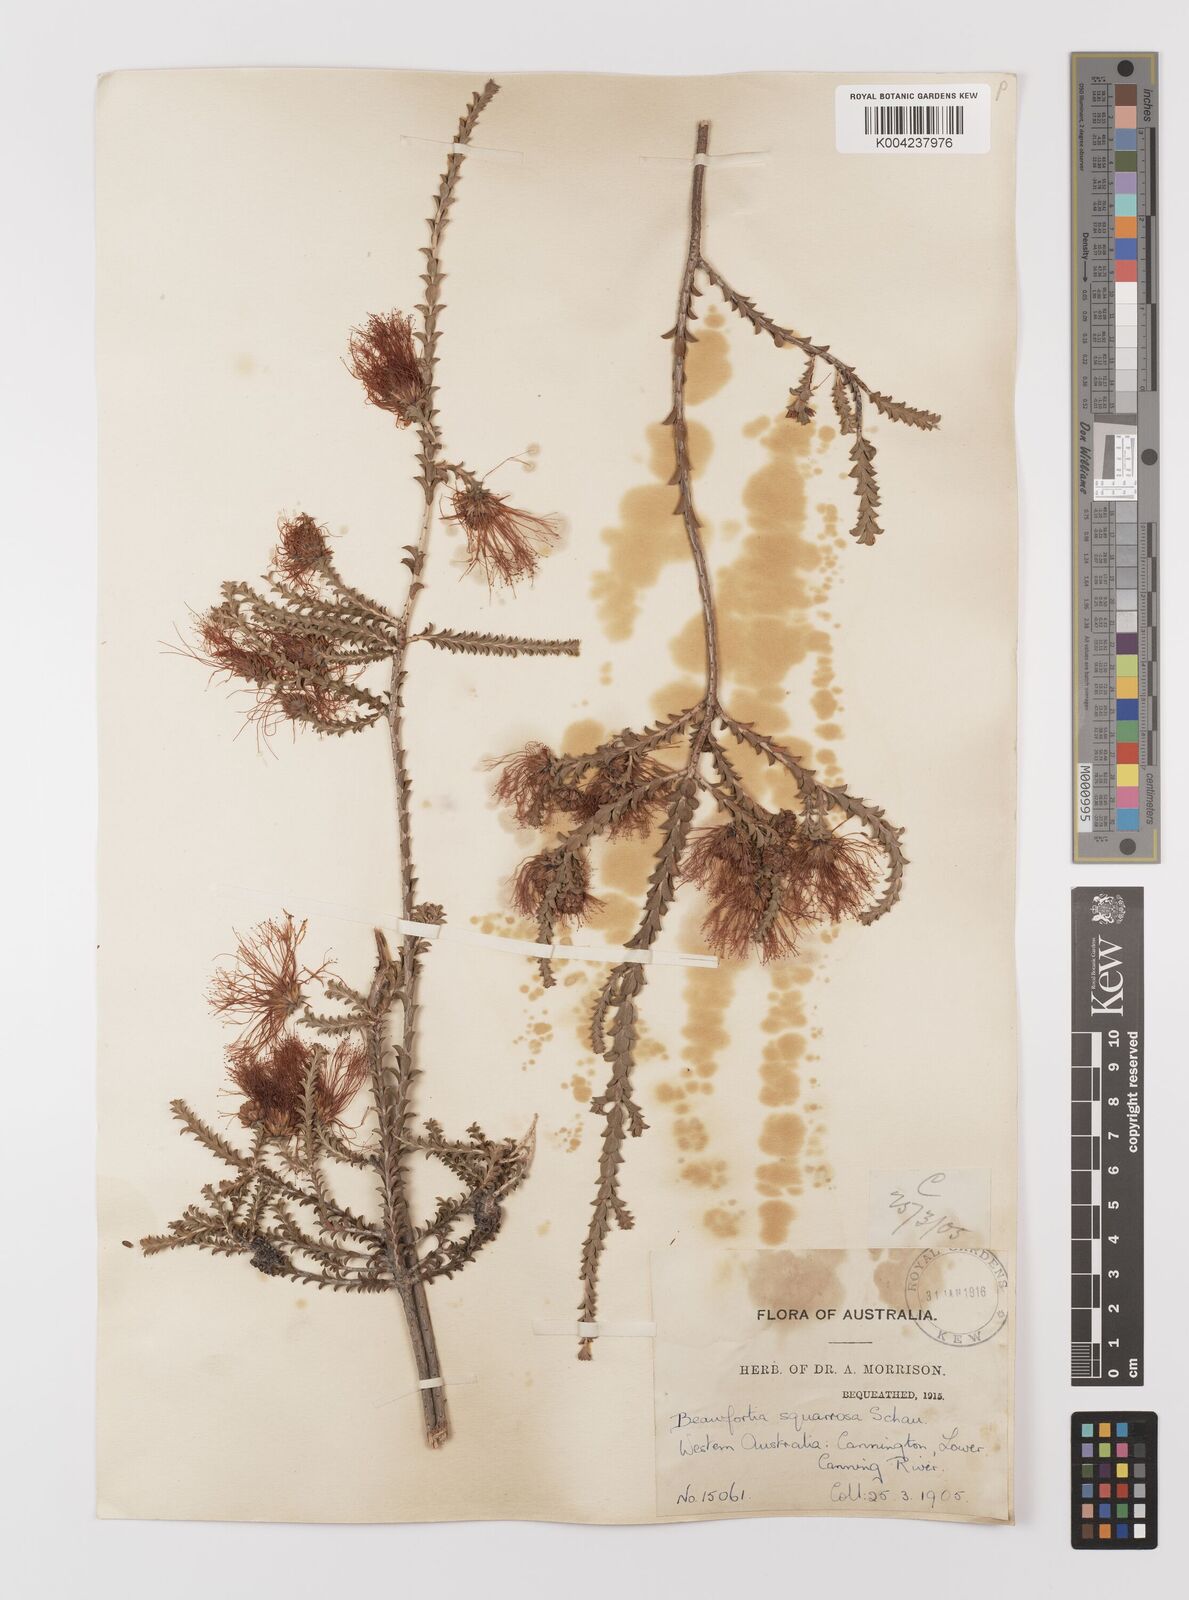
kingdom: Plantae
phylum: Tracheophyta
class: Magnoliopsida
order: Myrtales
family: Myrtaceae
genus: Melaleuca
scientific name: Melaleuca pulcherrima
